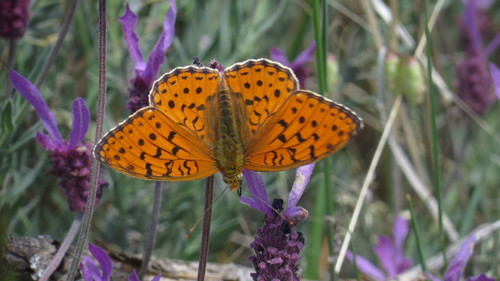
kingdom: Animalia
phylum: Arthropoda
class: Insecta
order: Lepidoptera
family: Nymphalidae
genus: Fabriciana
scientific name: Fabriciana niobe
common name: Niobe fritillary
